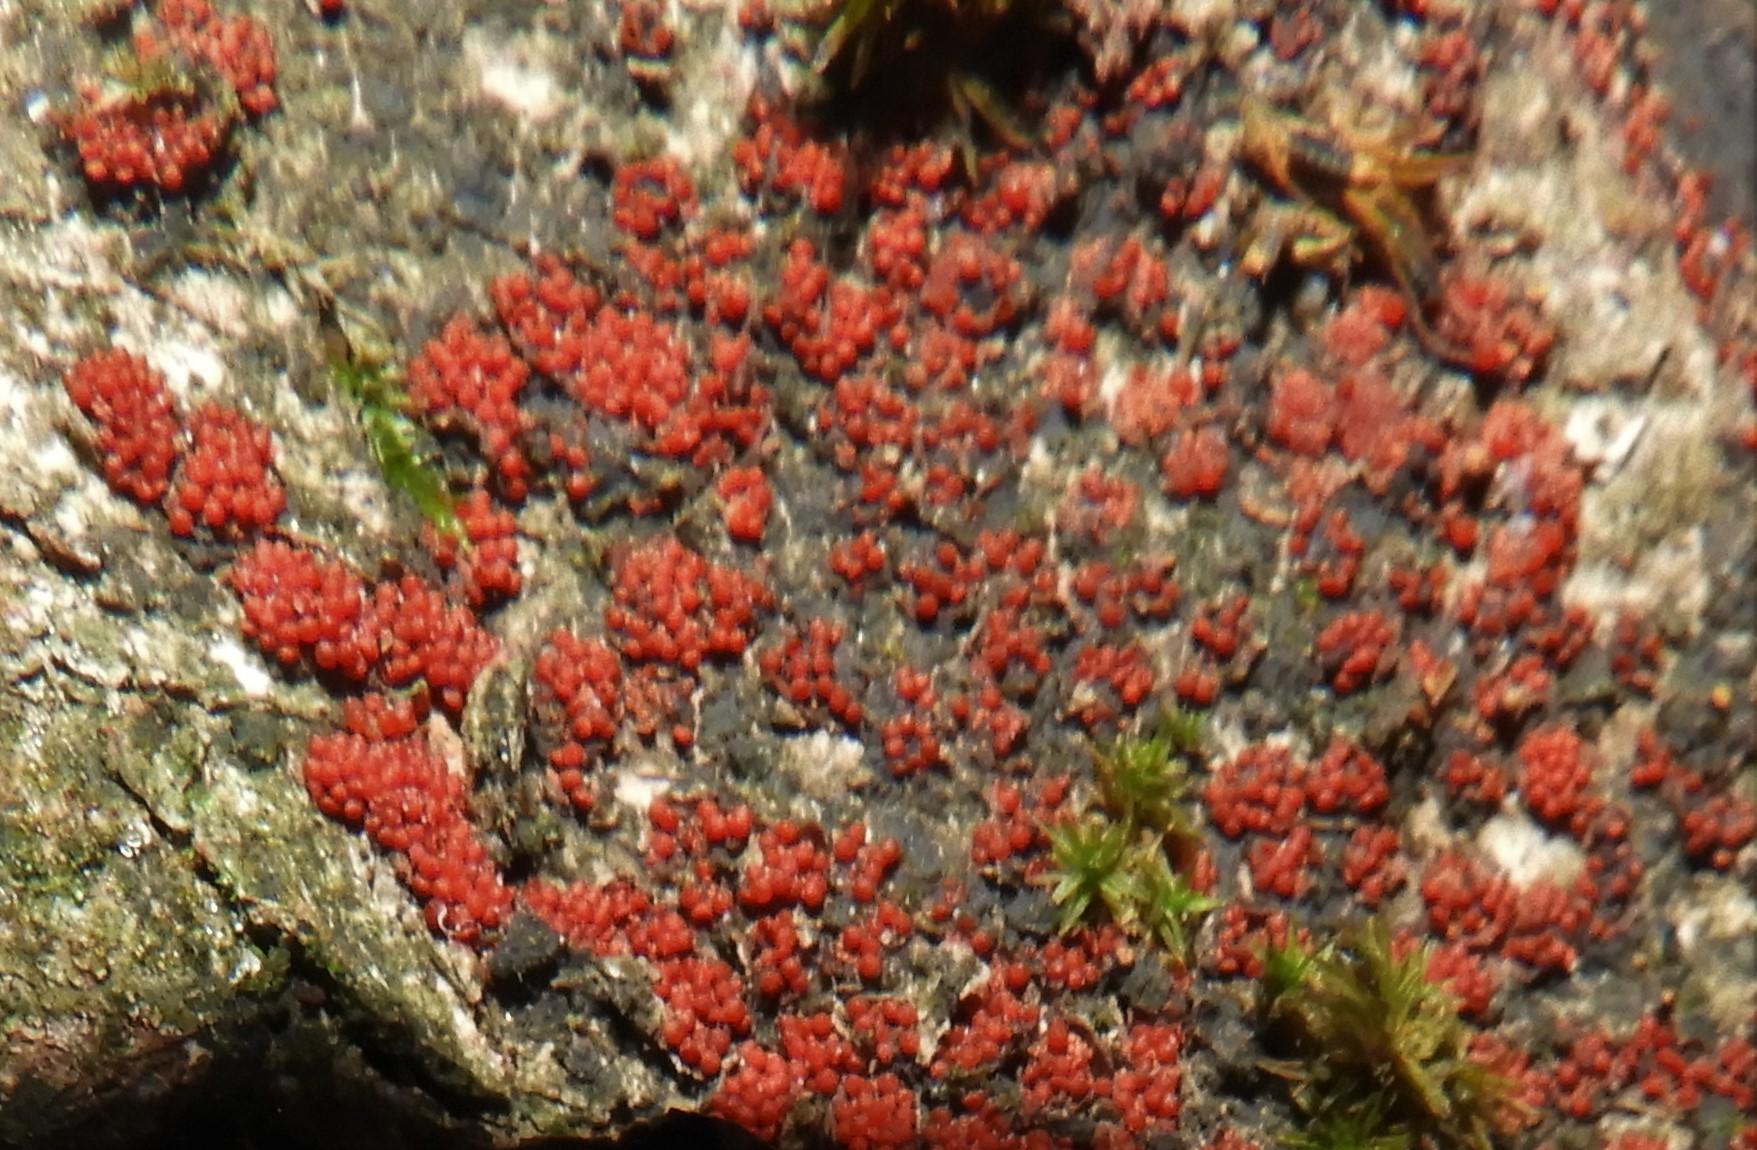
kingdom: Fungi
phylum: Ascomycota
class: Sordariomycetes
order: Hypocreales
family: Nectriaceae
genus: Nectria
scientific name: Nectria cinnabarina
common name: almindelig cinnobersvamp
